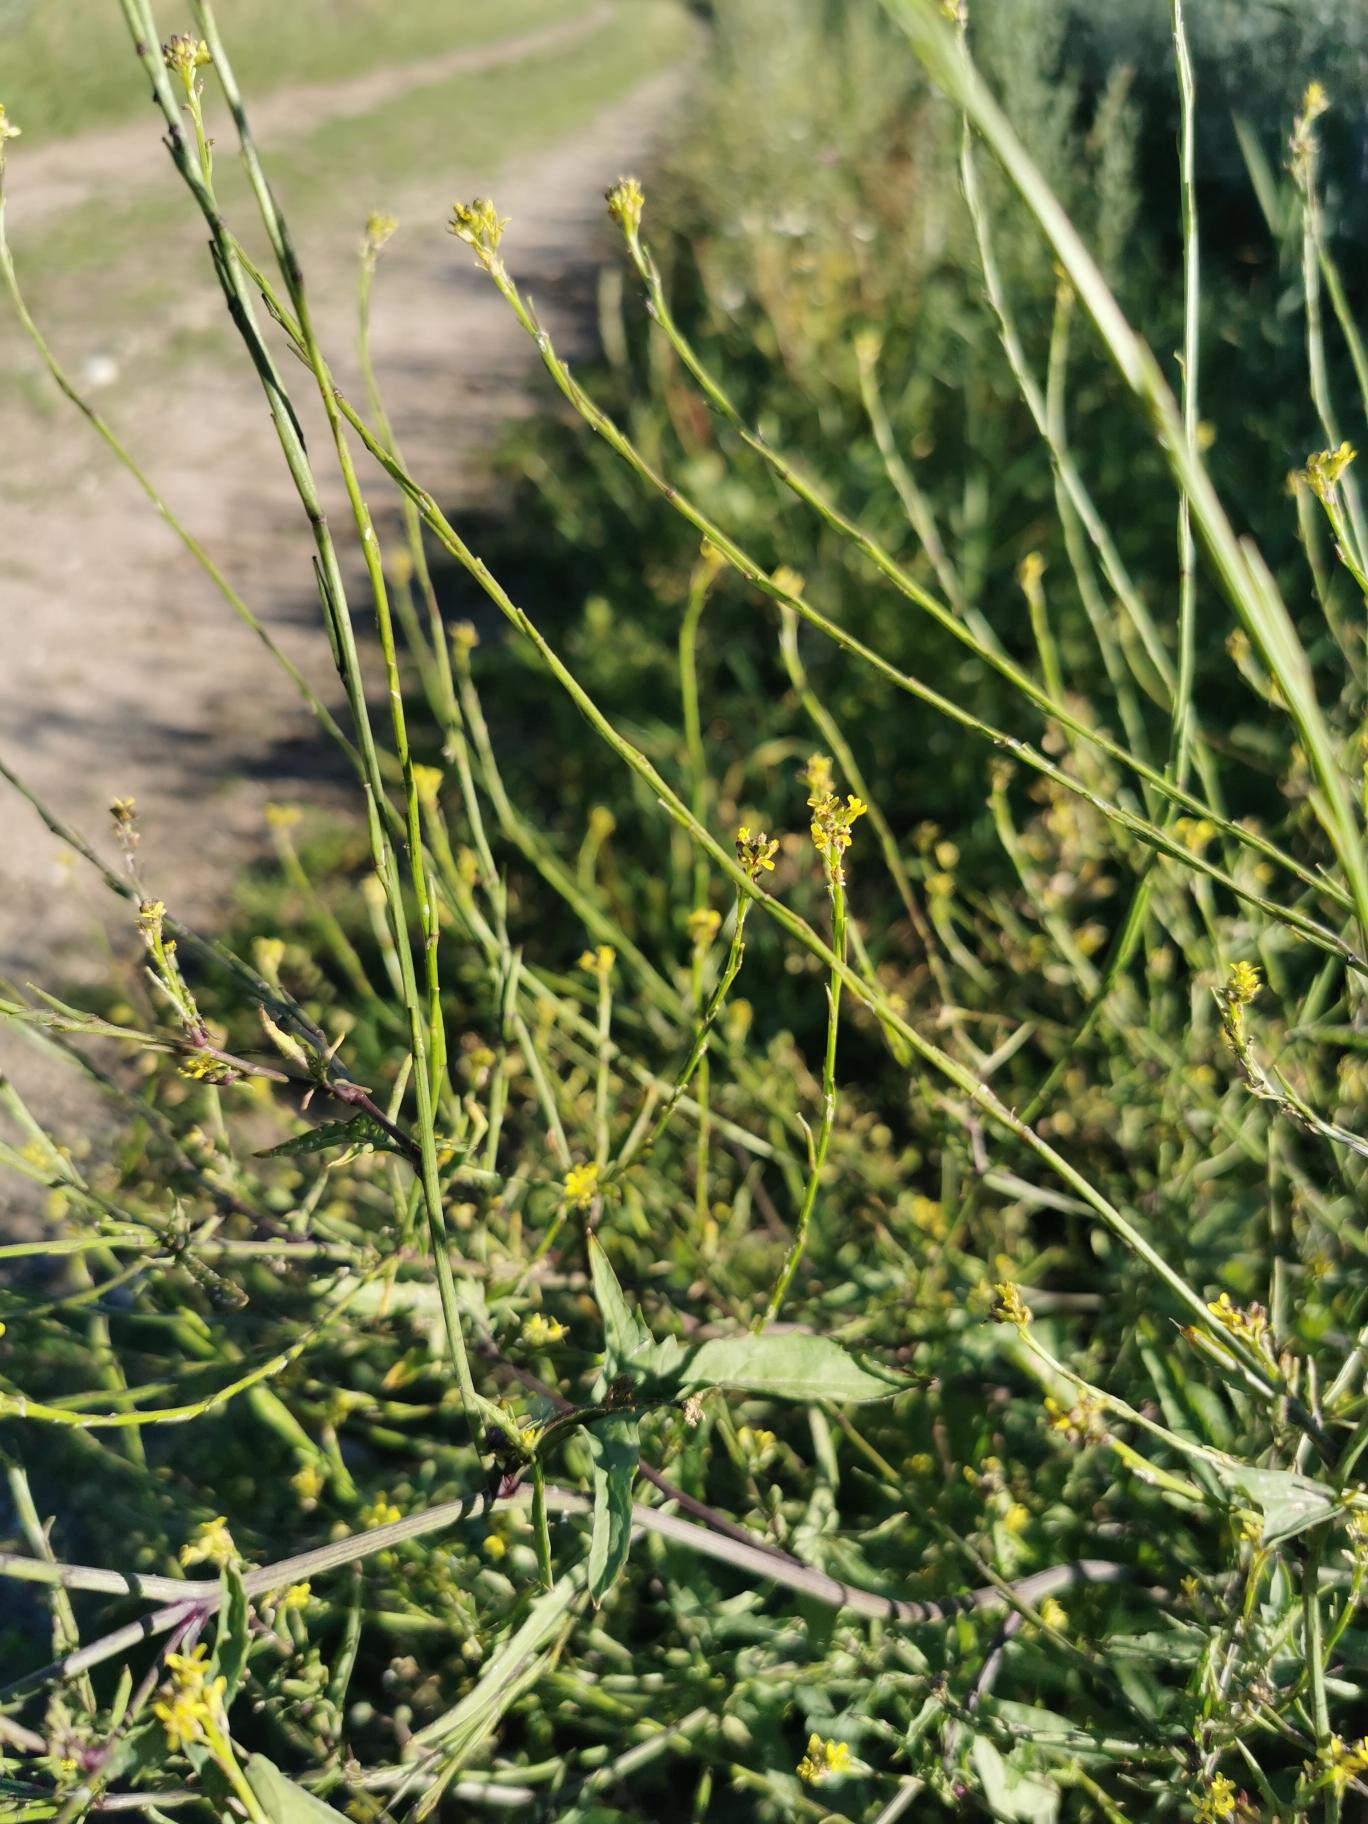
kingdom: Plantae
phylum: Tracheophyta
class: Magnoliopsida
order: Brassicales
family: Brassicaceae
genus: Sisymbrium
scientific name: Sisymbrium officinale
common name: Rank vejsennep
